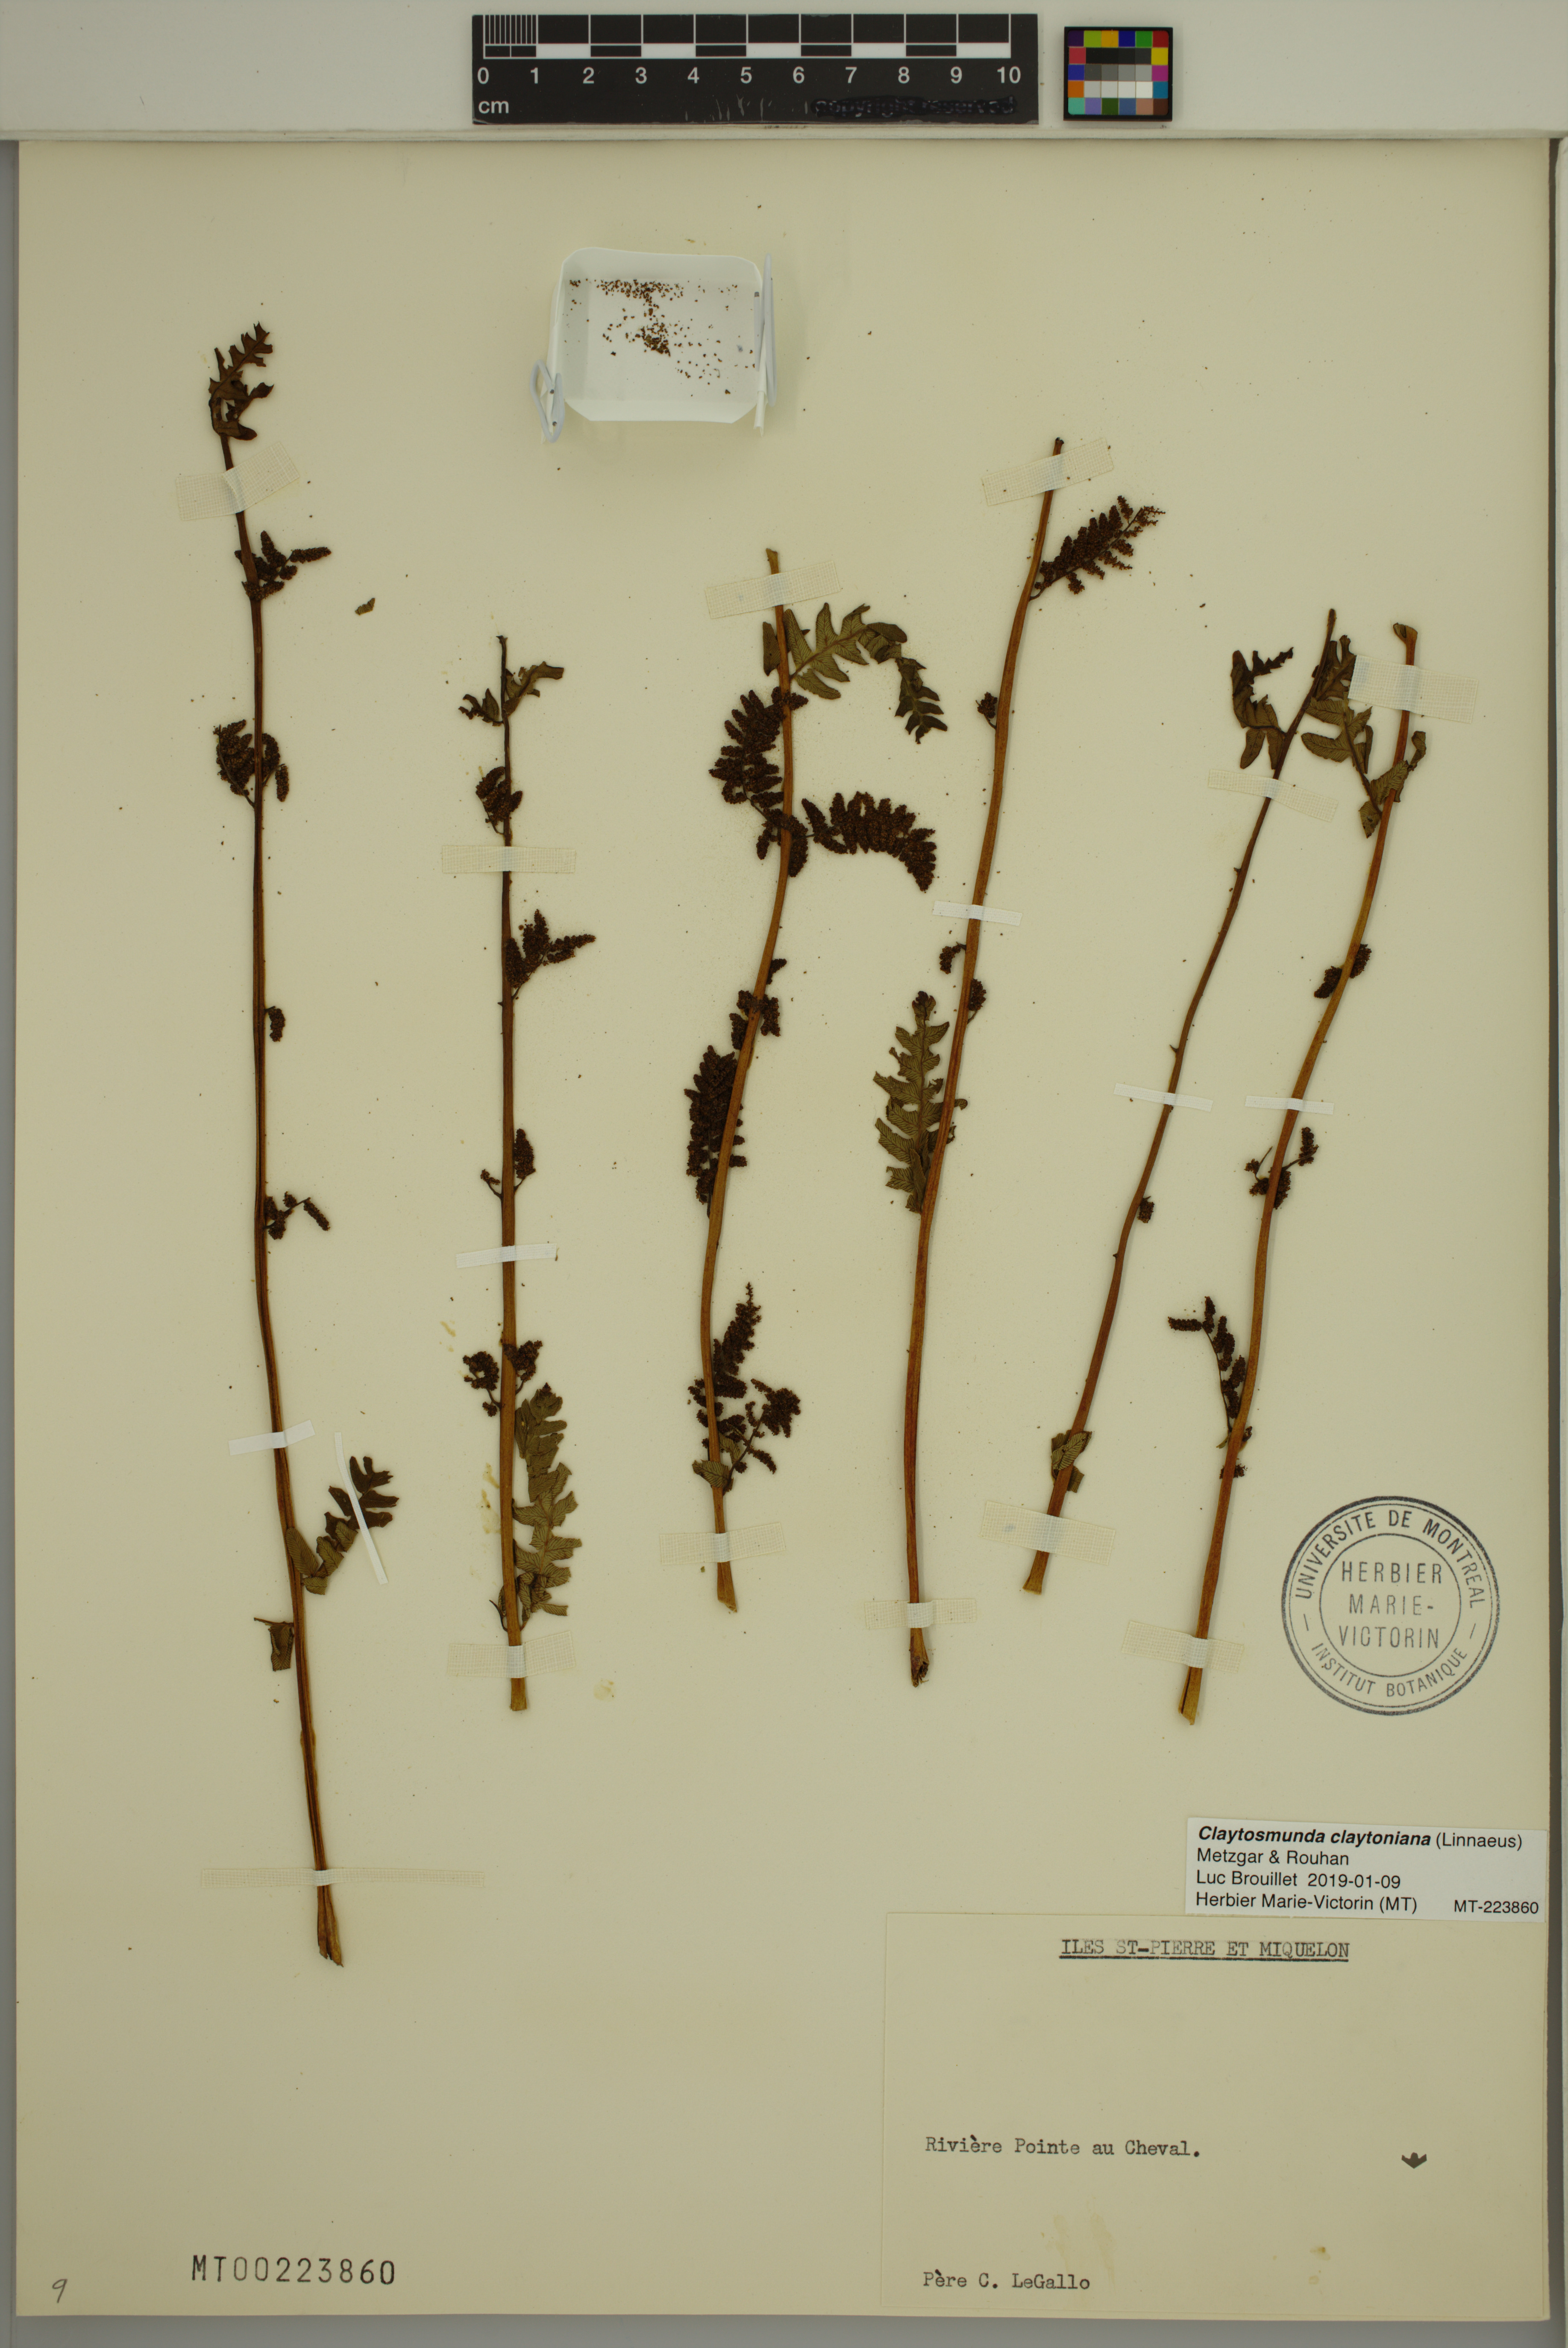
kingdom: Plantae
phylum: Tracheophyta
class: Polypodiopsida
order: Osmundales
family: Osmundaceae
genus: Claytosmunda
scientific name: Claytosmunda claytoniana
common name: Clayton's fern
